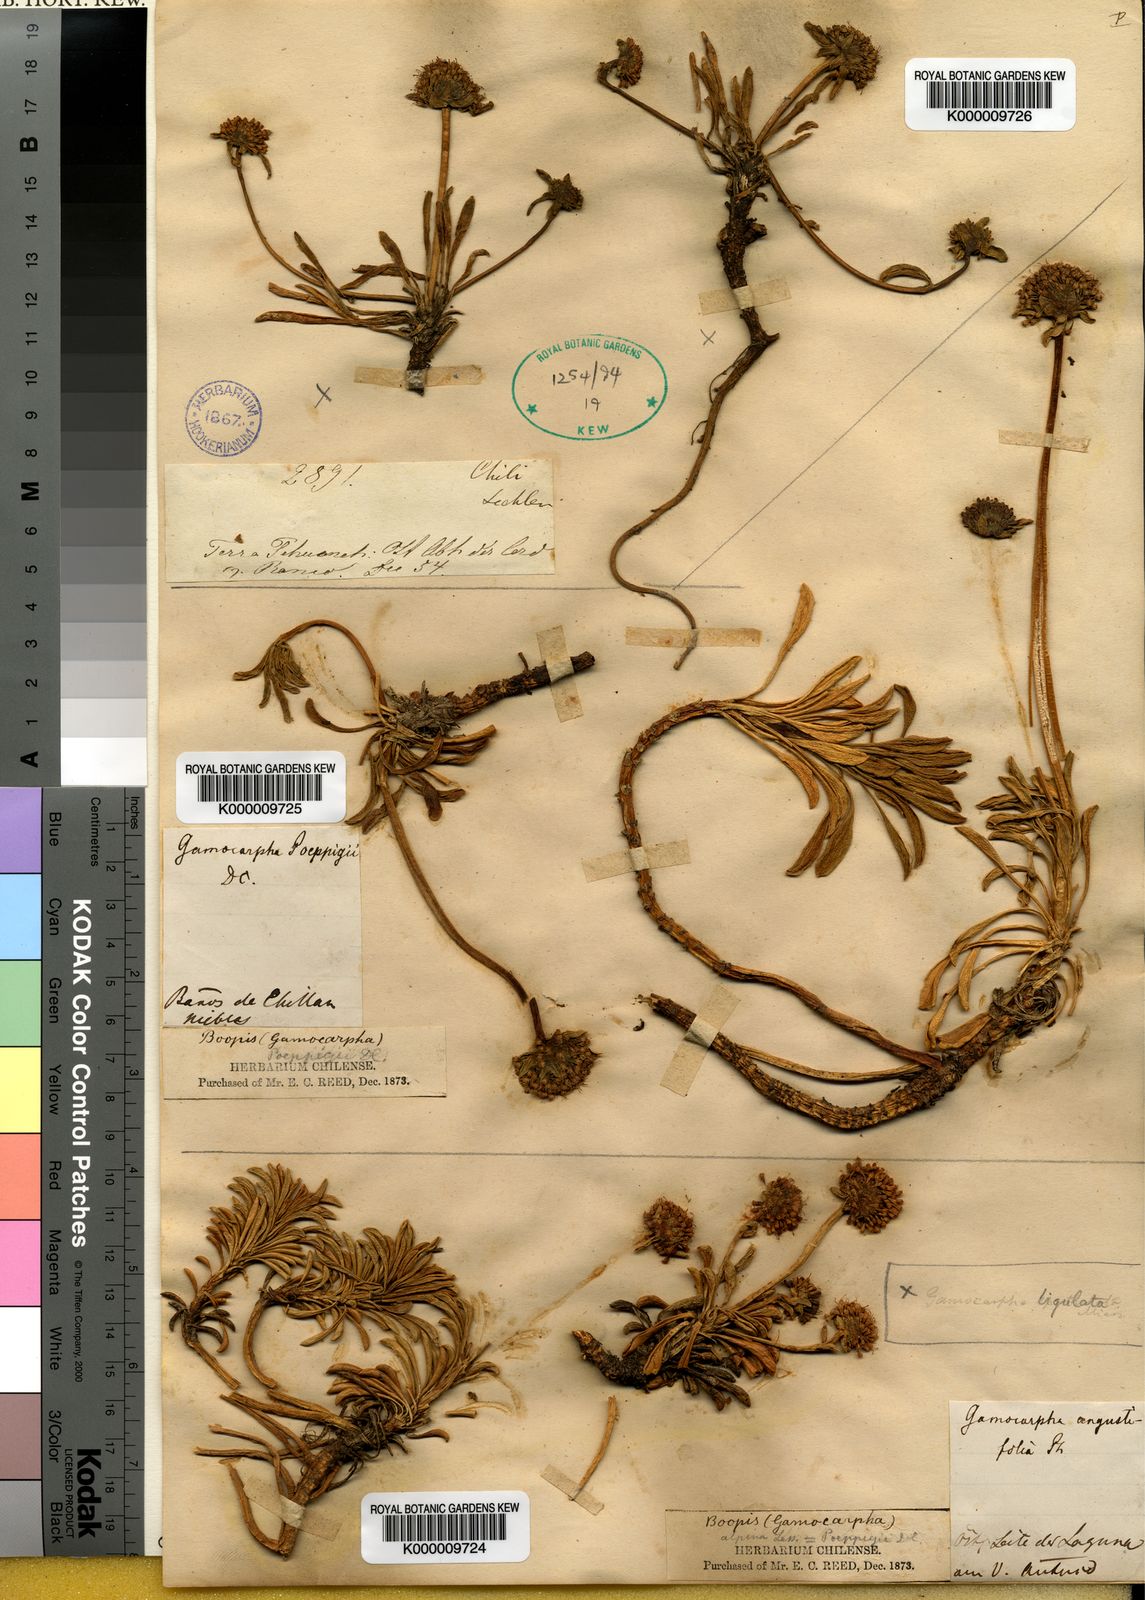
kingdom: Plantae
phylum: Tracheophyta
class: Magnoliopsida
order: Asterales
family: Calyceraceae
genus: Gamocarpha
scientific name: Gamocarpha alpina
